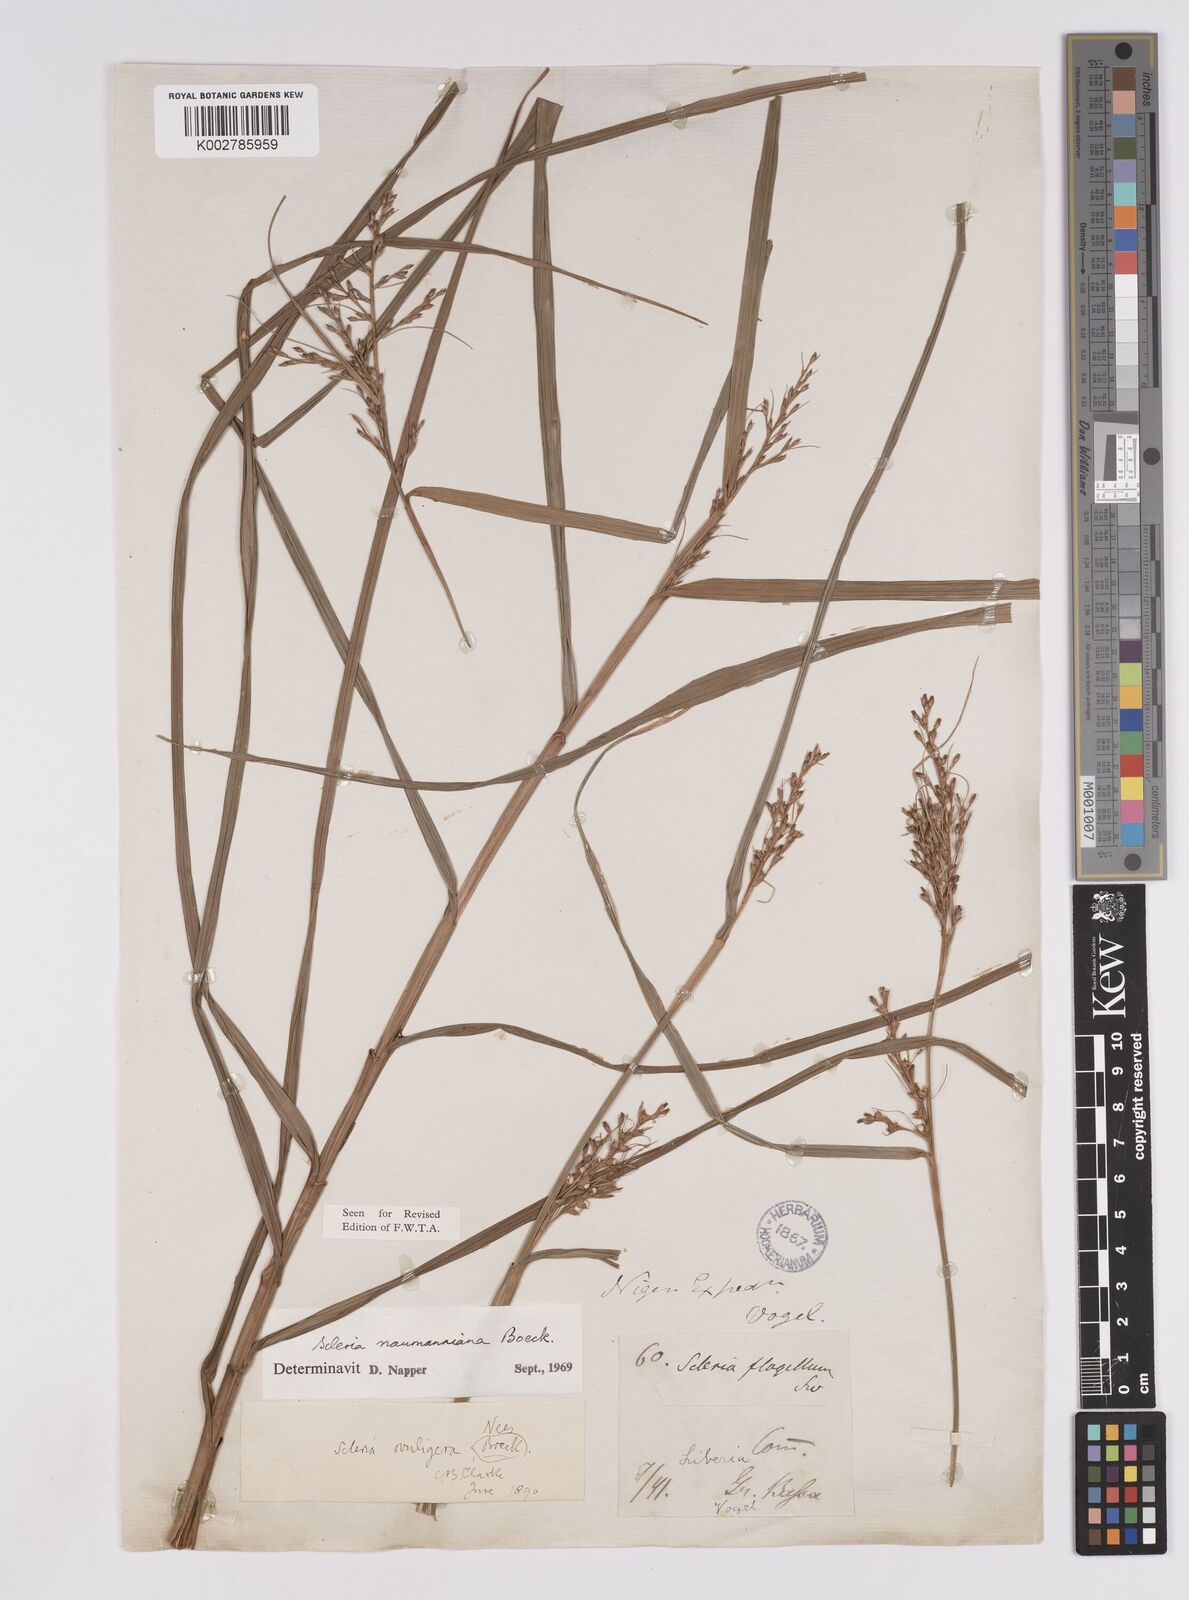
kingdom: Plantae
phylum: Tracheophyta
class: Liliopsida
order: Poales
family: Cyperaceae
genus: Scleria
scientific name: Scleria naumanniana
